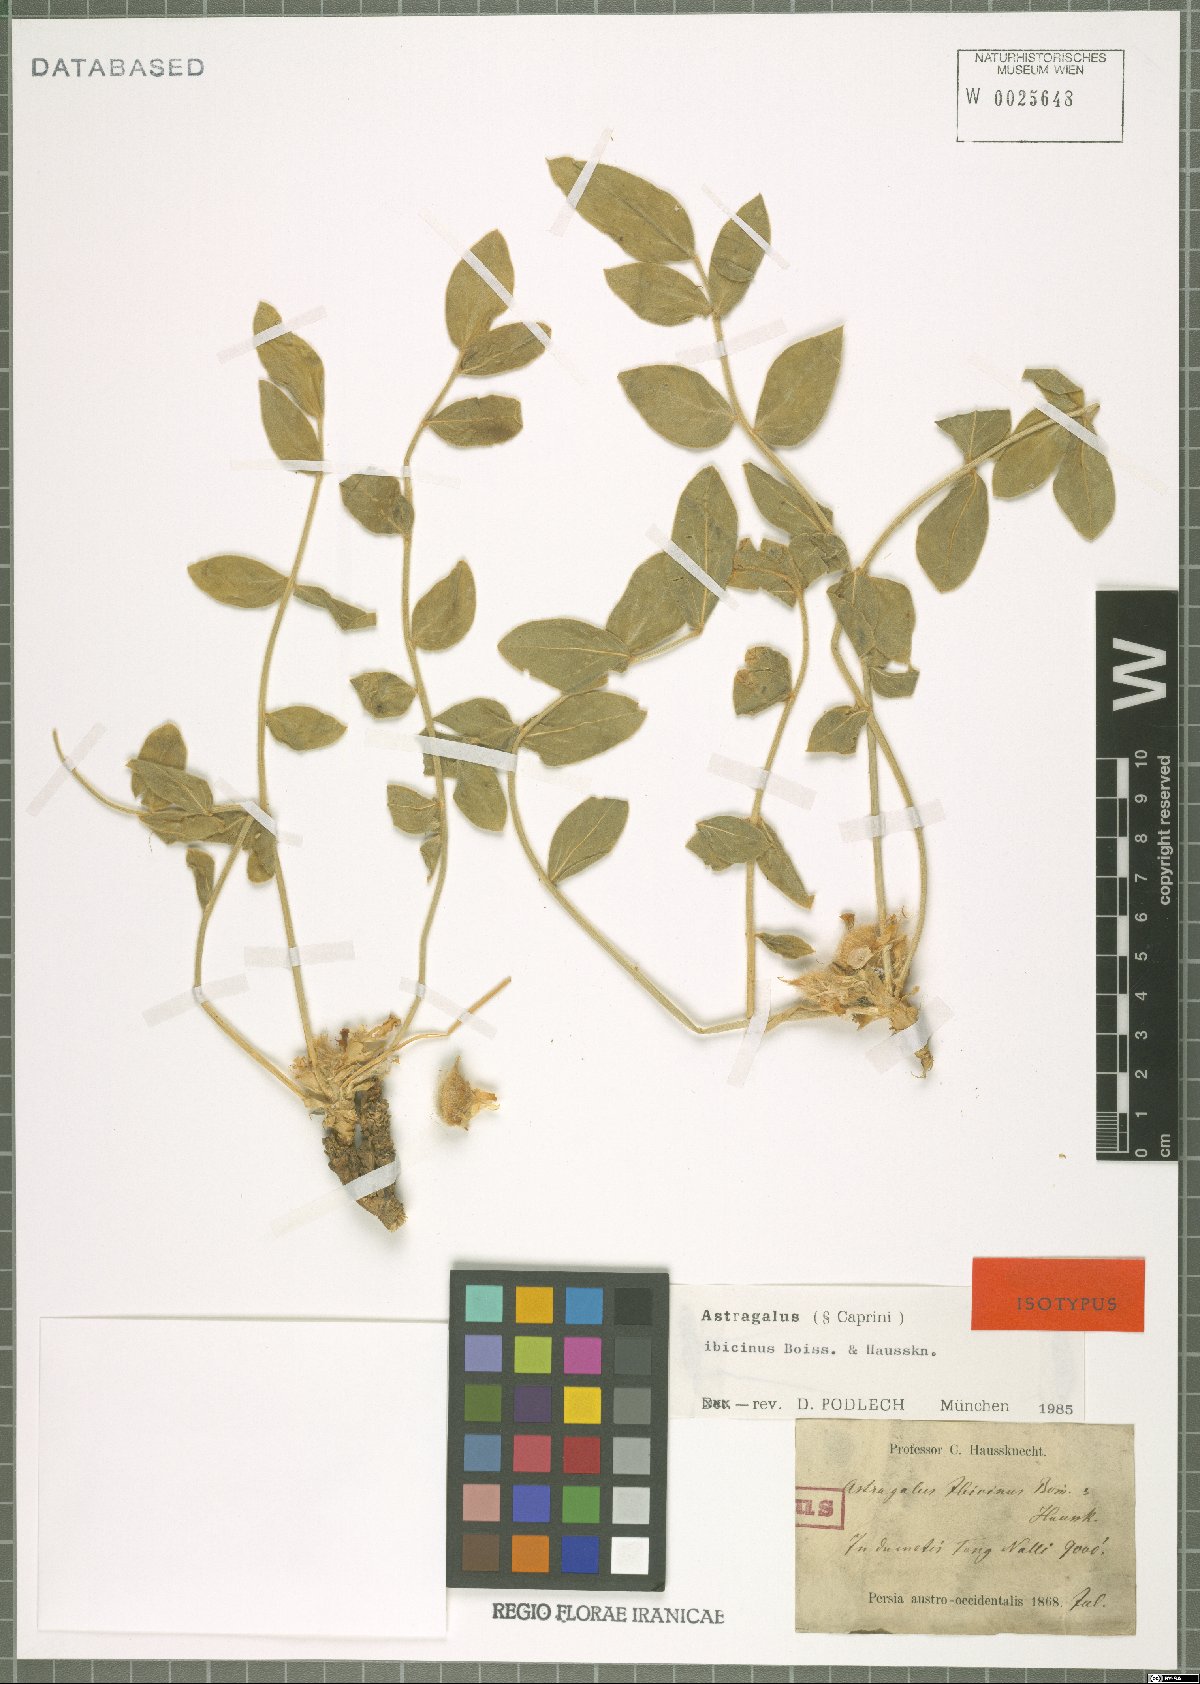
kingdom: Plantae
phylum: Tracheophyta
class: Magnoliopsida
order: Fabales
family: Fabaceae
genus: Astragalus
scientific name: Astragalus ibicinus
